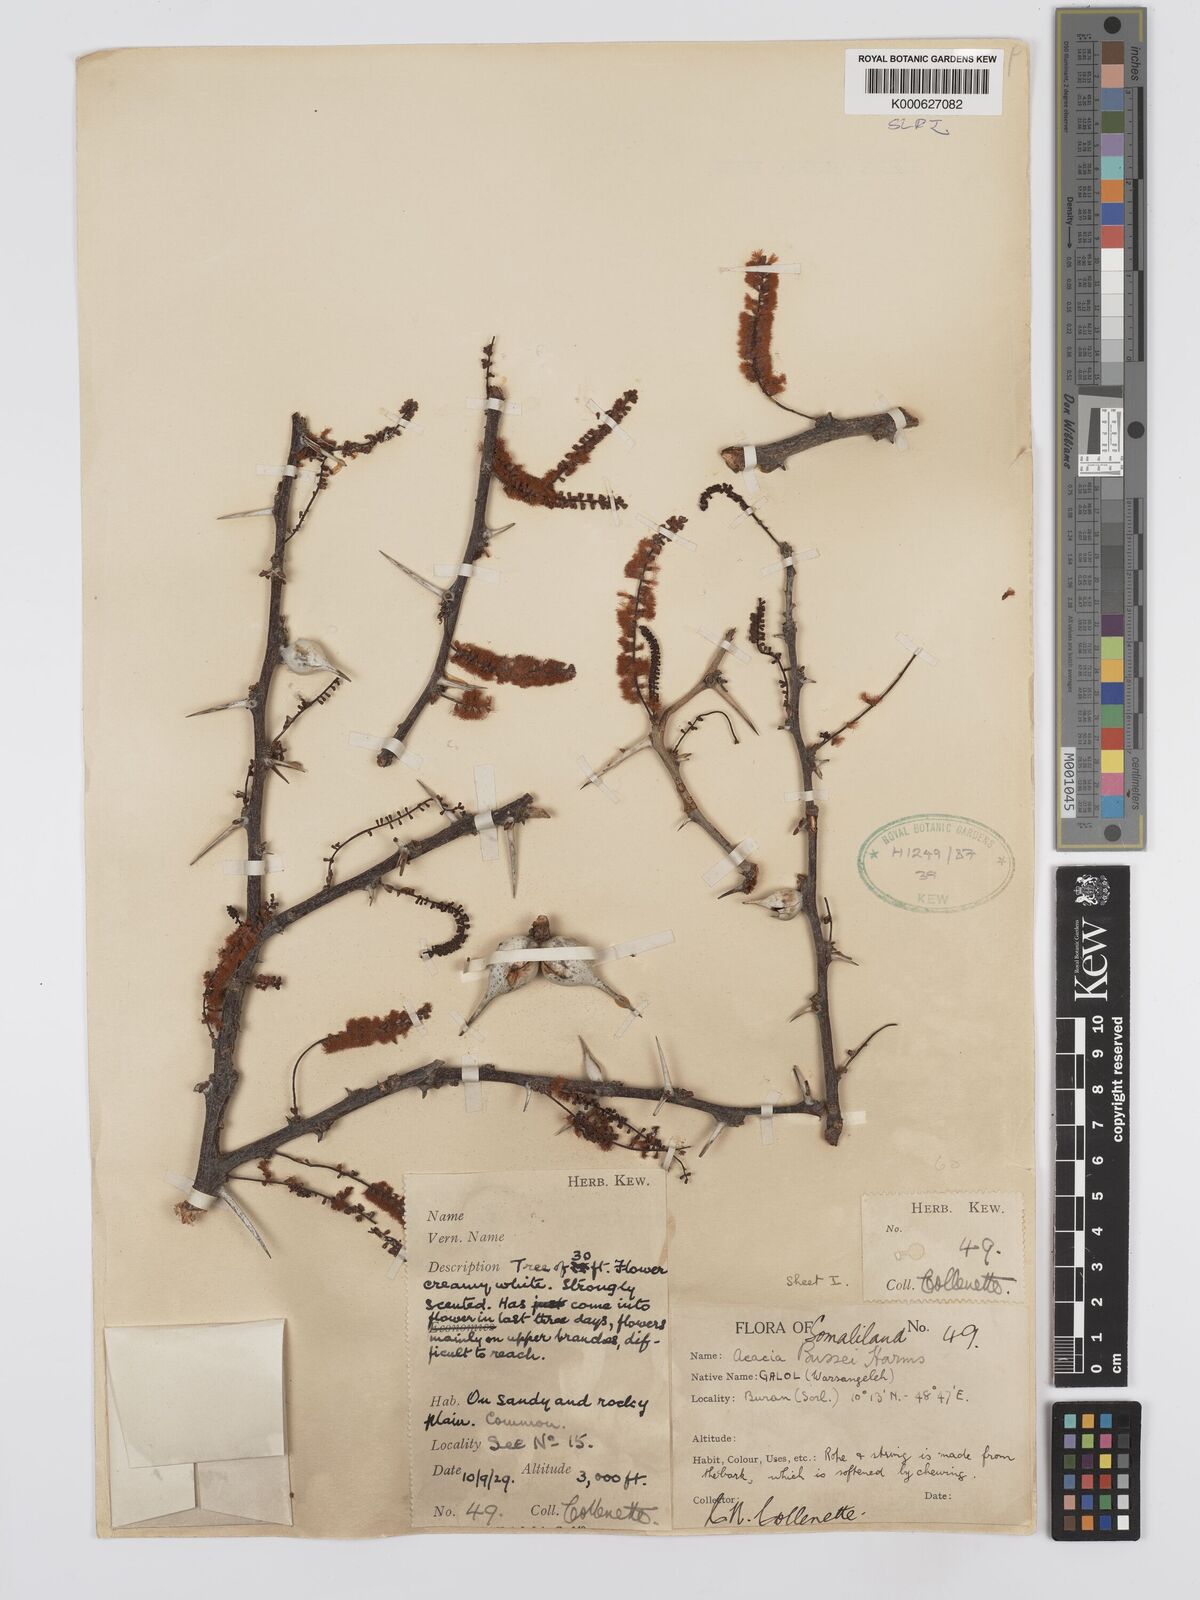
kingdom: Plantae
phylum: Tracheophyta
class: Magnoliopsida
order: Fabales
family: Fabaceae
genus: Vachellia
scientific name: Vachellia bussei
